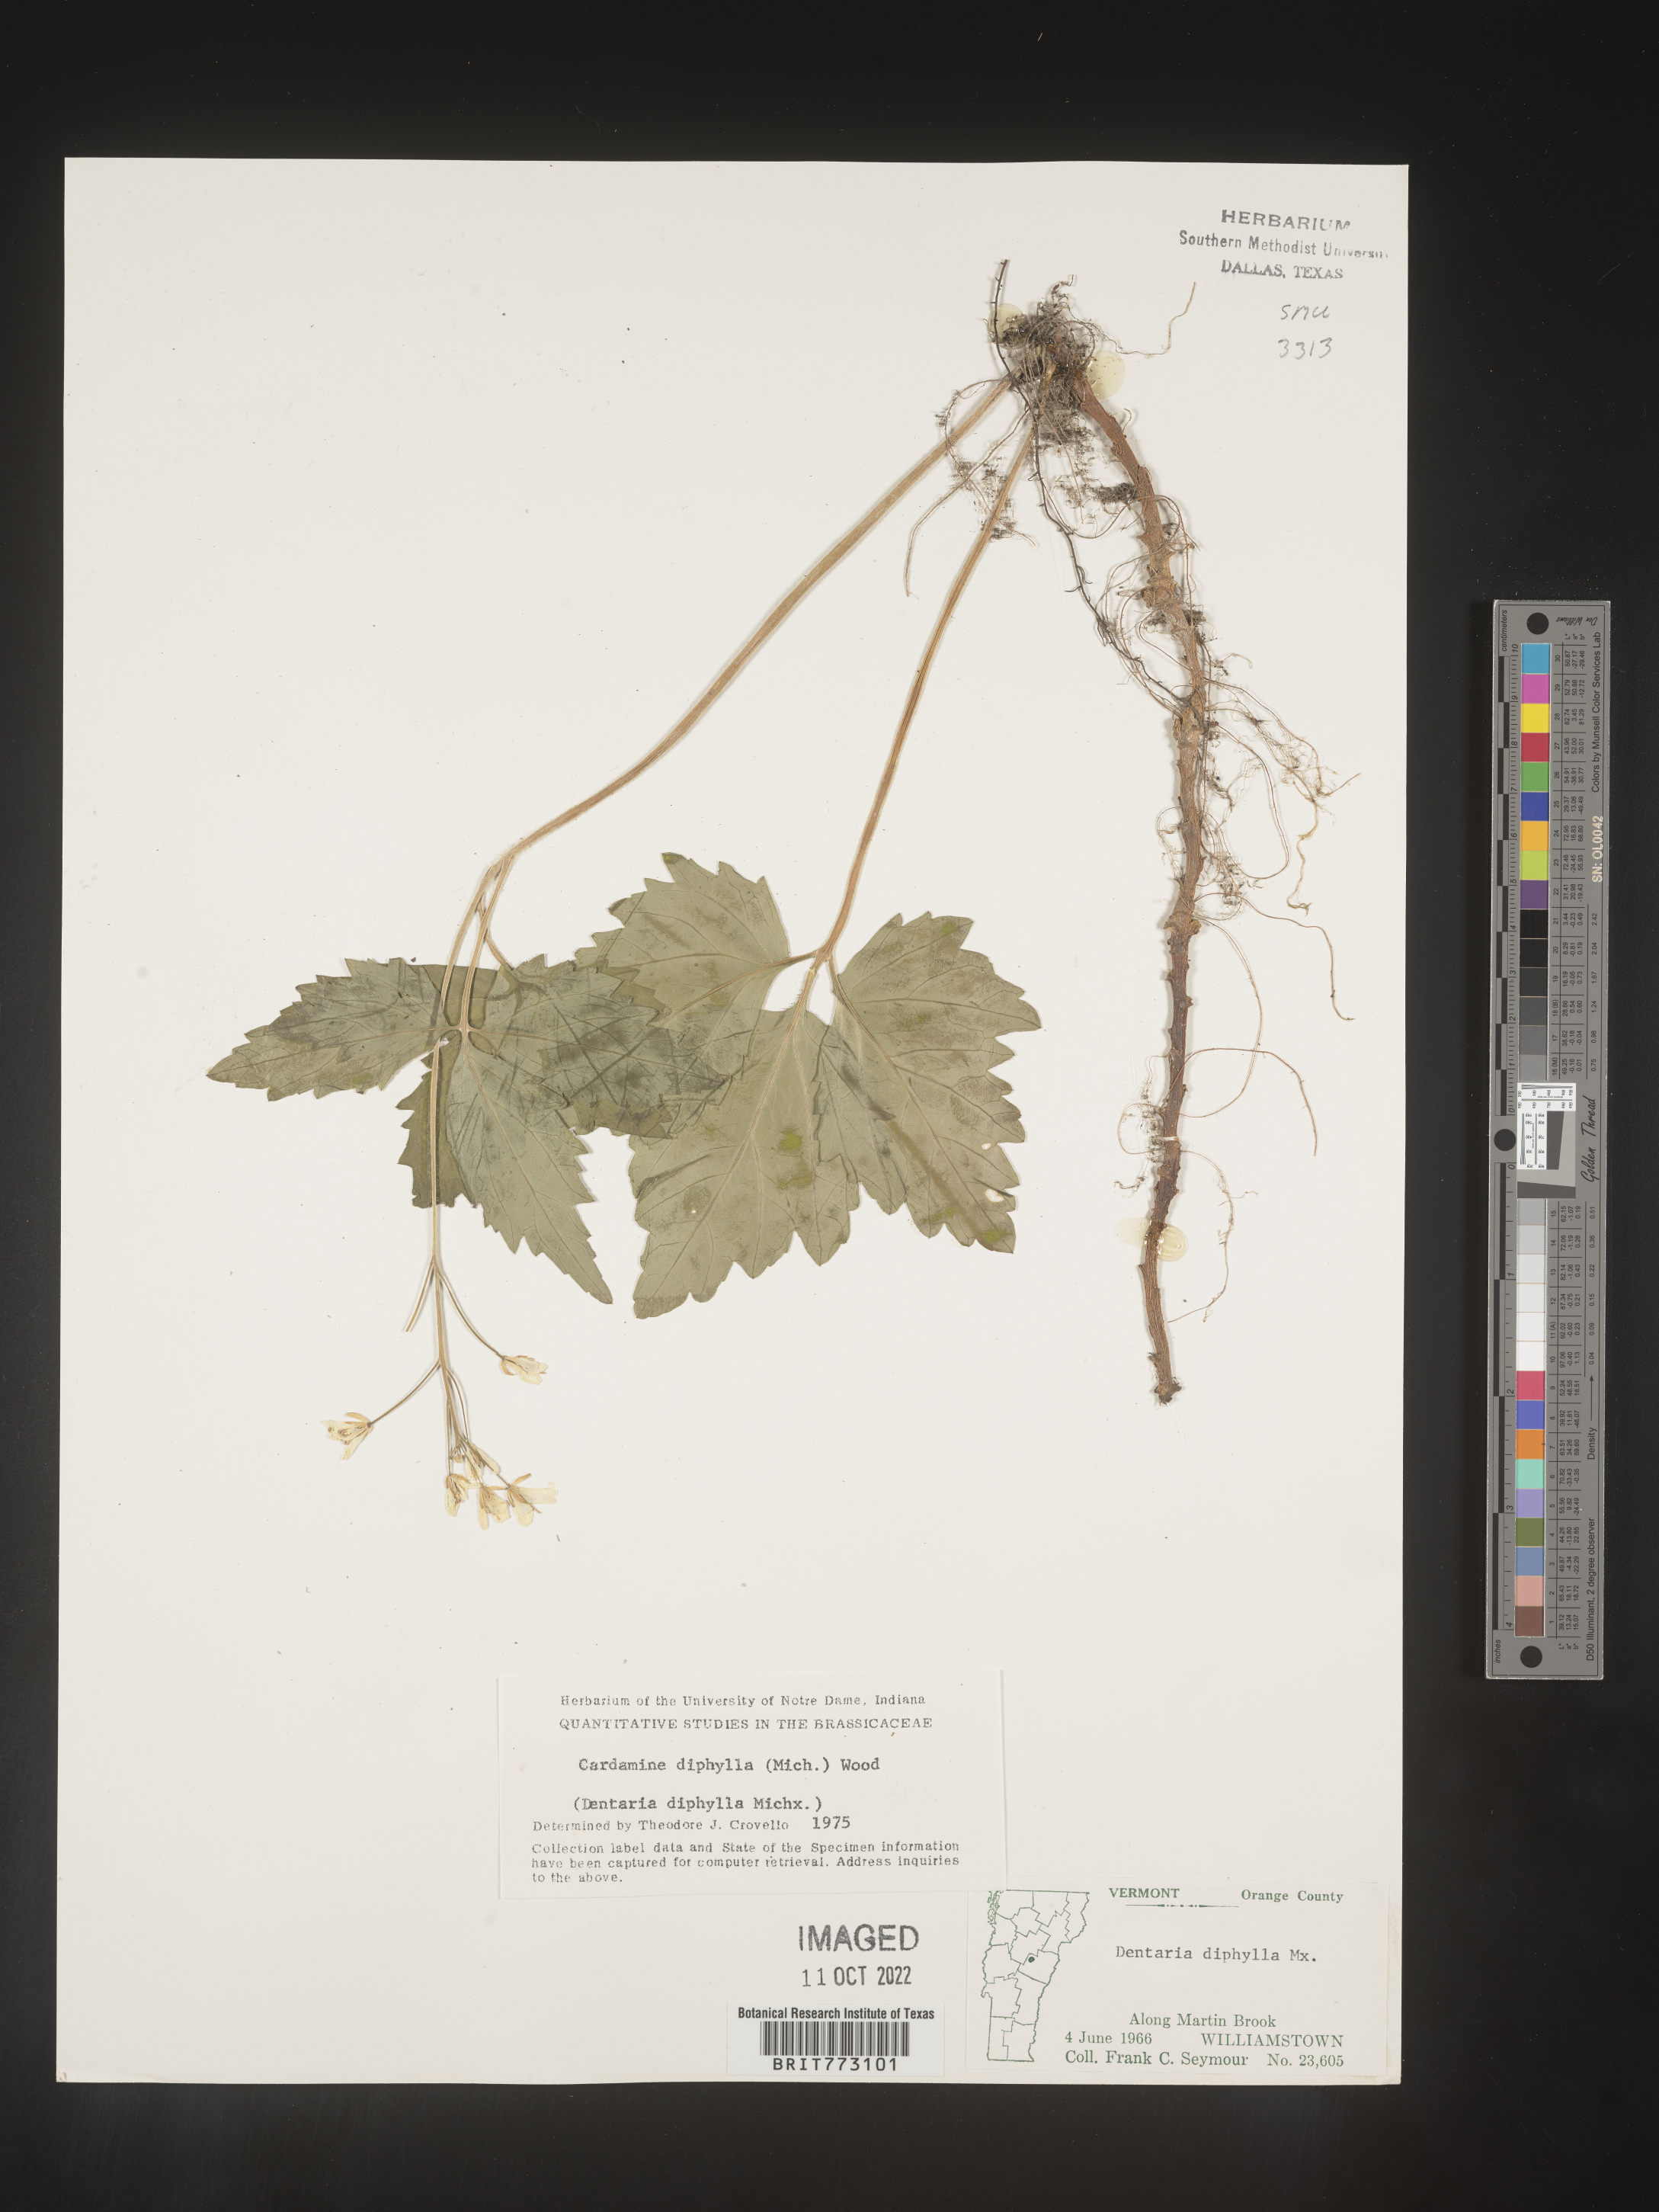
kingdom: Plantae
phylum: Tracheophyta
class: Magnoliopsida
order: Brassicales
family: Brassicaceae
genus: Cardamine
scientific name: Cardamine diphylla
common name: Broad-leaved toothwort
